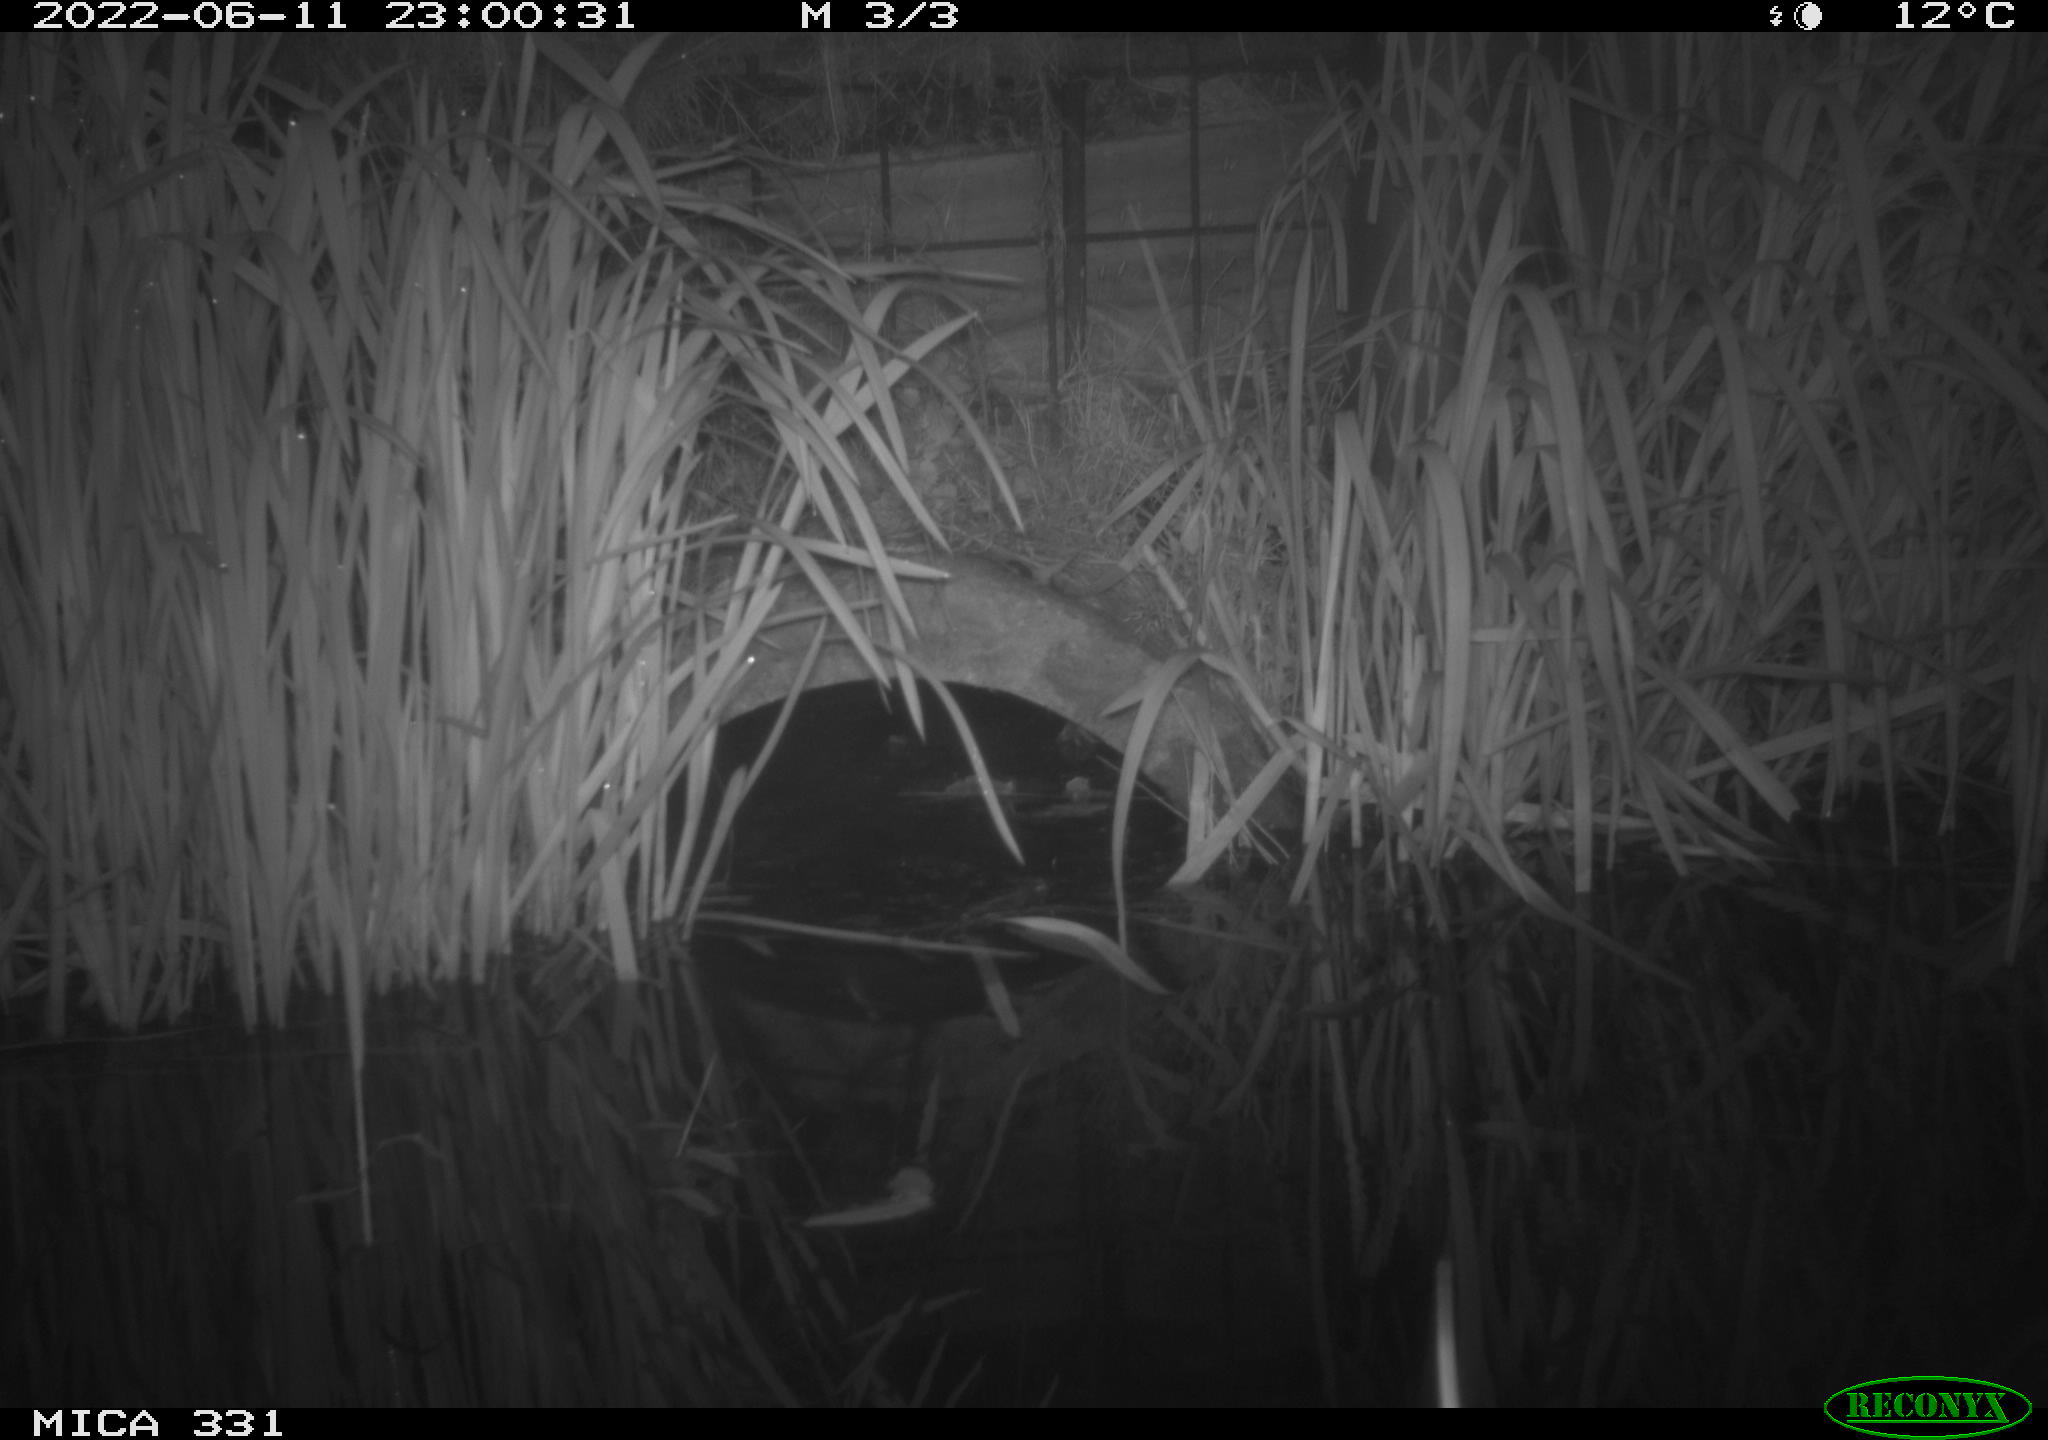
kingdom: Animalia
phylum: Chordata
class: Mammalia
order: Rodentia
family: Muridae
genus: Rattus
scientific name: Rattus norvegicus
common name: Brown rat
